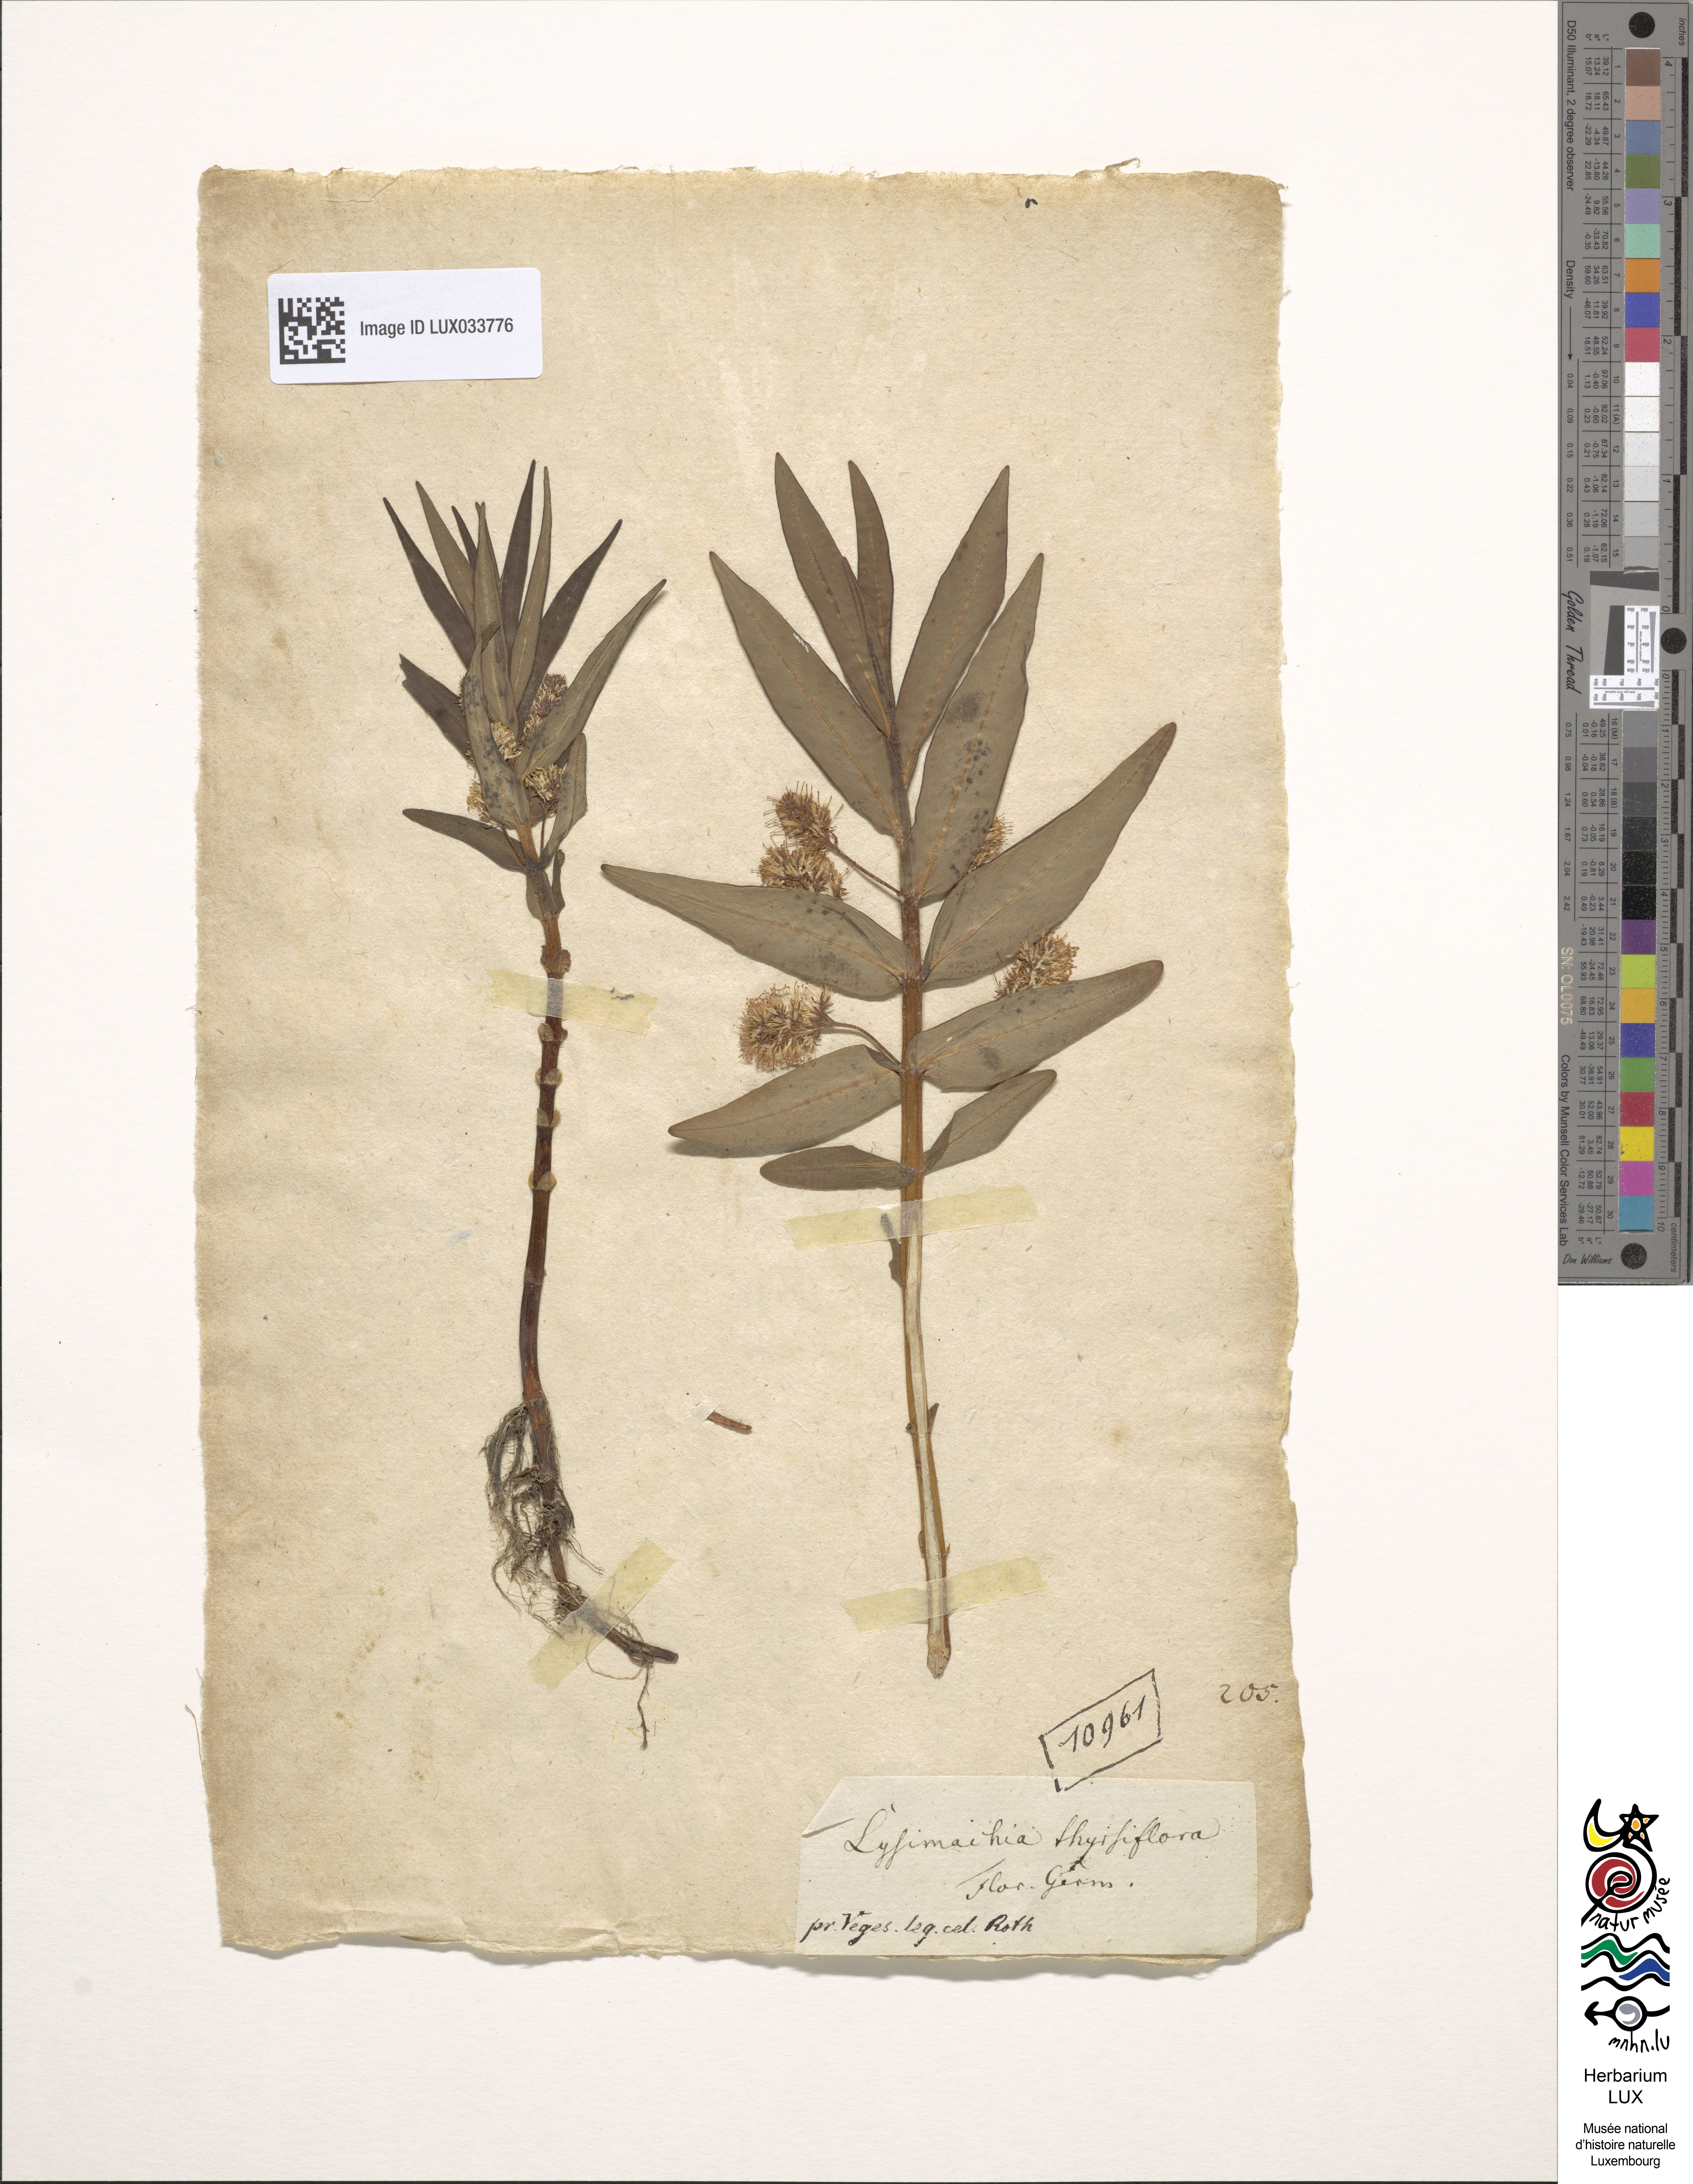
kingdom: Plantae
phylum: Tracheophyta
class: Magnoliopsida
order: Ericales
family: Primulaceae
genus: Lysimachia
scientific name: Lysimachia thyrsiflora
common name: Tufted loosestrife
